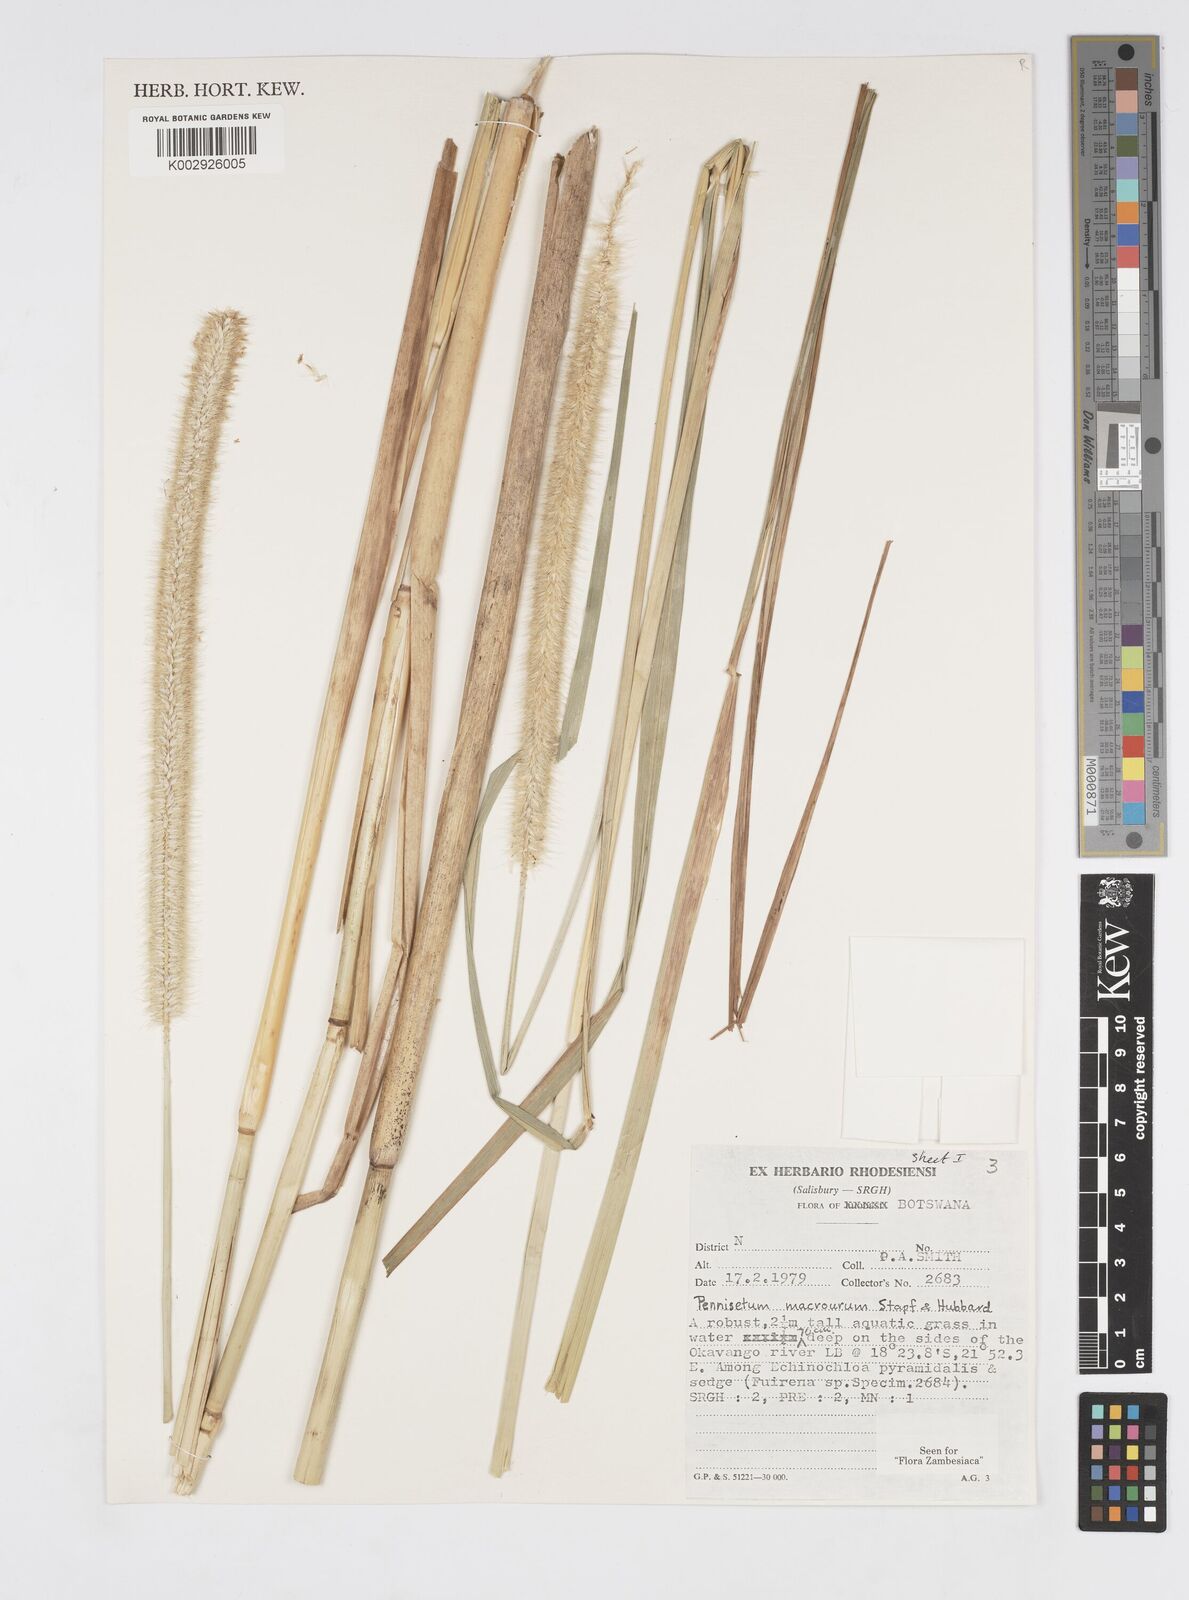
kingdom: Plantae
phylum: Tracheophyta
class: Liliopsida
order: Poales
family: Poaceae
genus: Cenchrus
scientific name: Cenchrus caudatus
